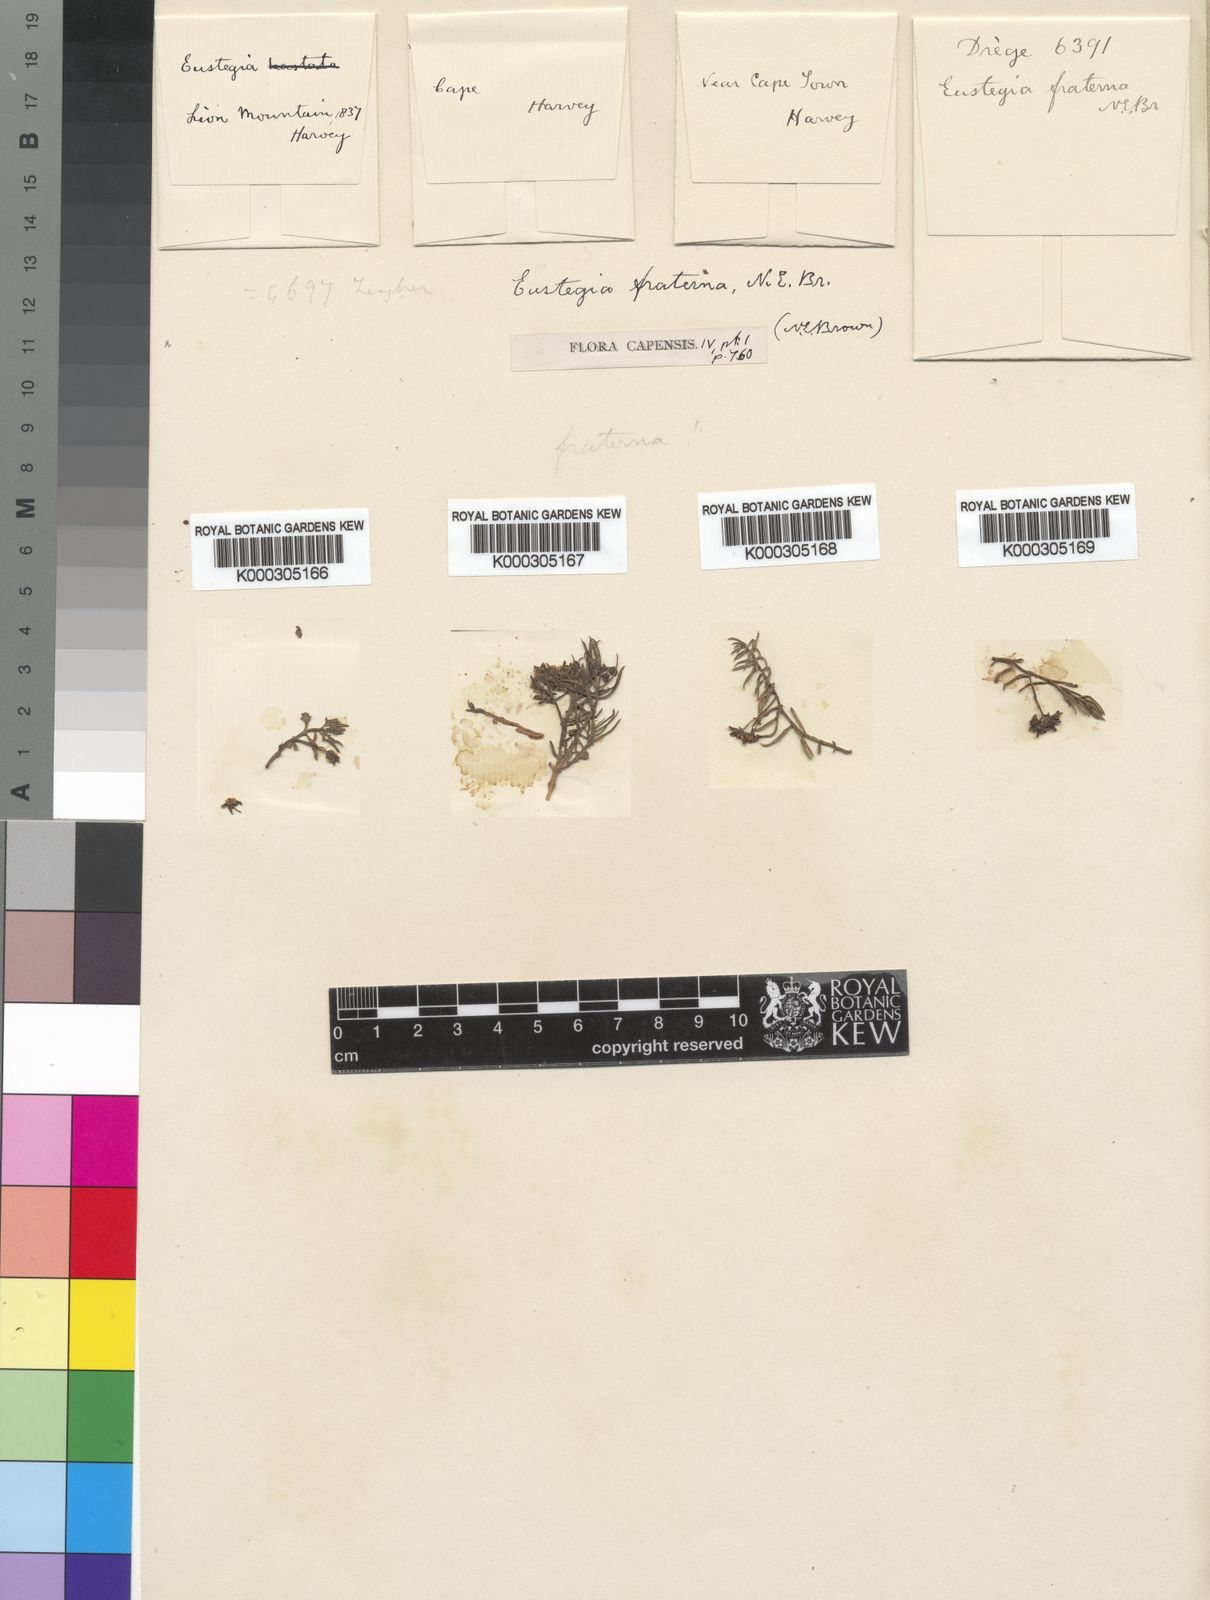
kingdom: Plantae
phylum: Tracheophyta
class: Magnoliopsida
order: Gentianales
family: Apocynaceae
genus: Eustegia
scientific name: Eustegia fraterna
